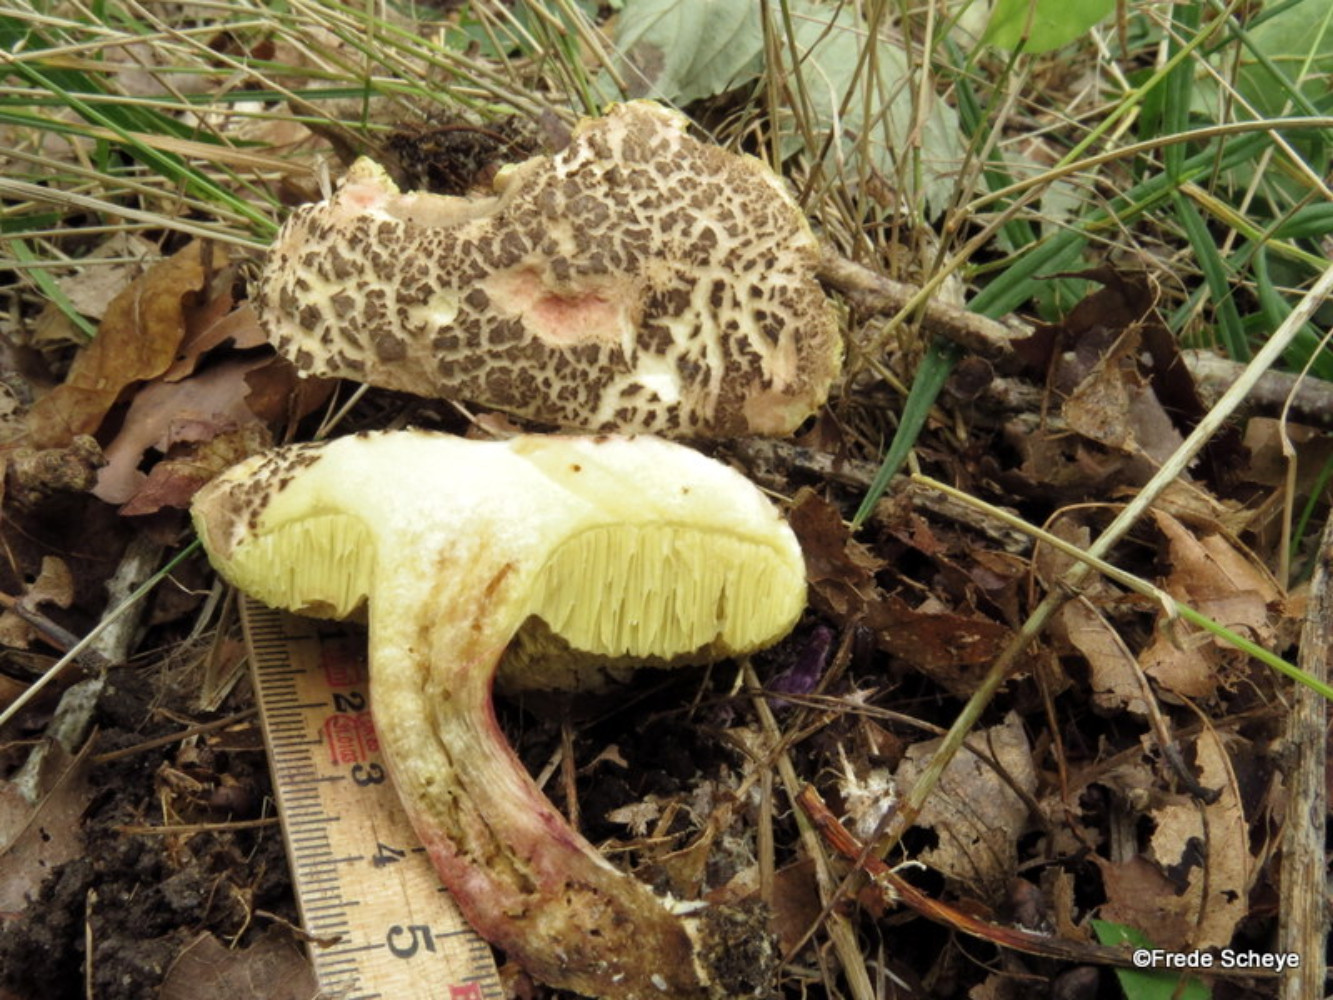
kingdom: Fungi
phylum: Basidiomycota
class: Agaricomycetes
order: Boletales
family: Boletaceae
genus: Xerocomellus
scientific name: Xerocomellus chrysenteron
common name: rødsprukken rørhat
